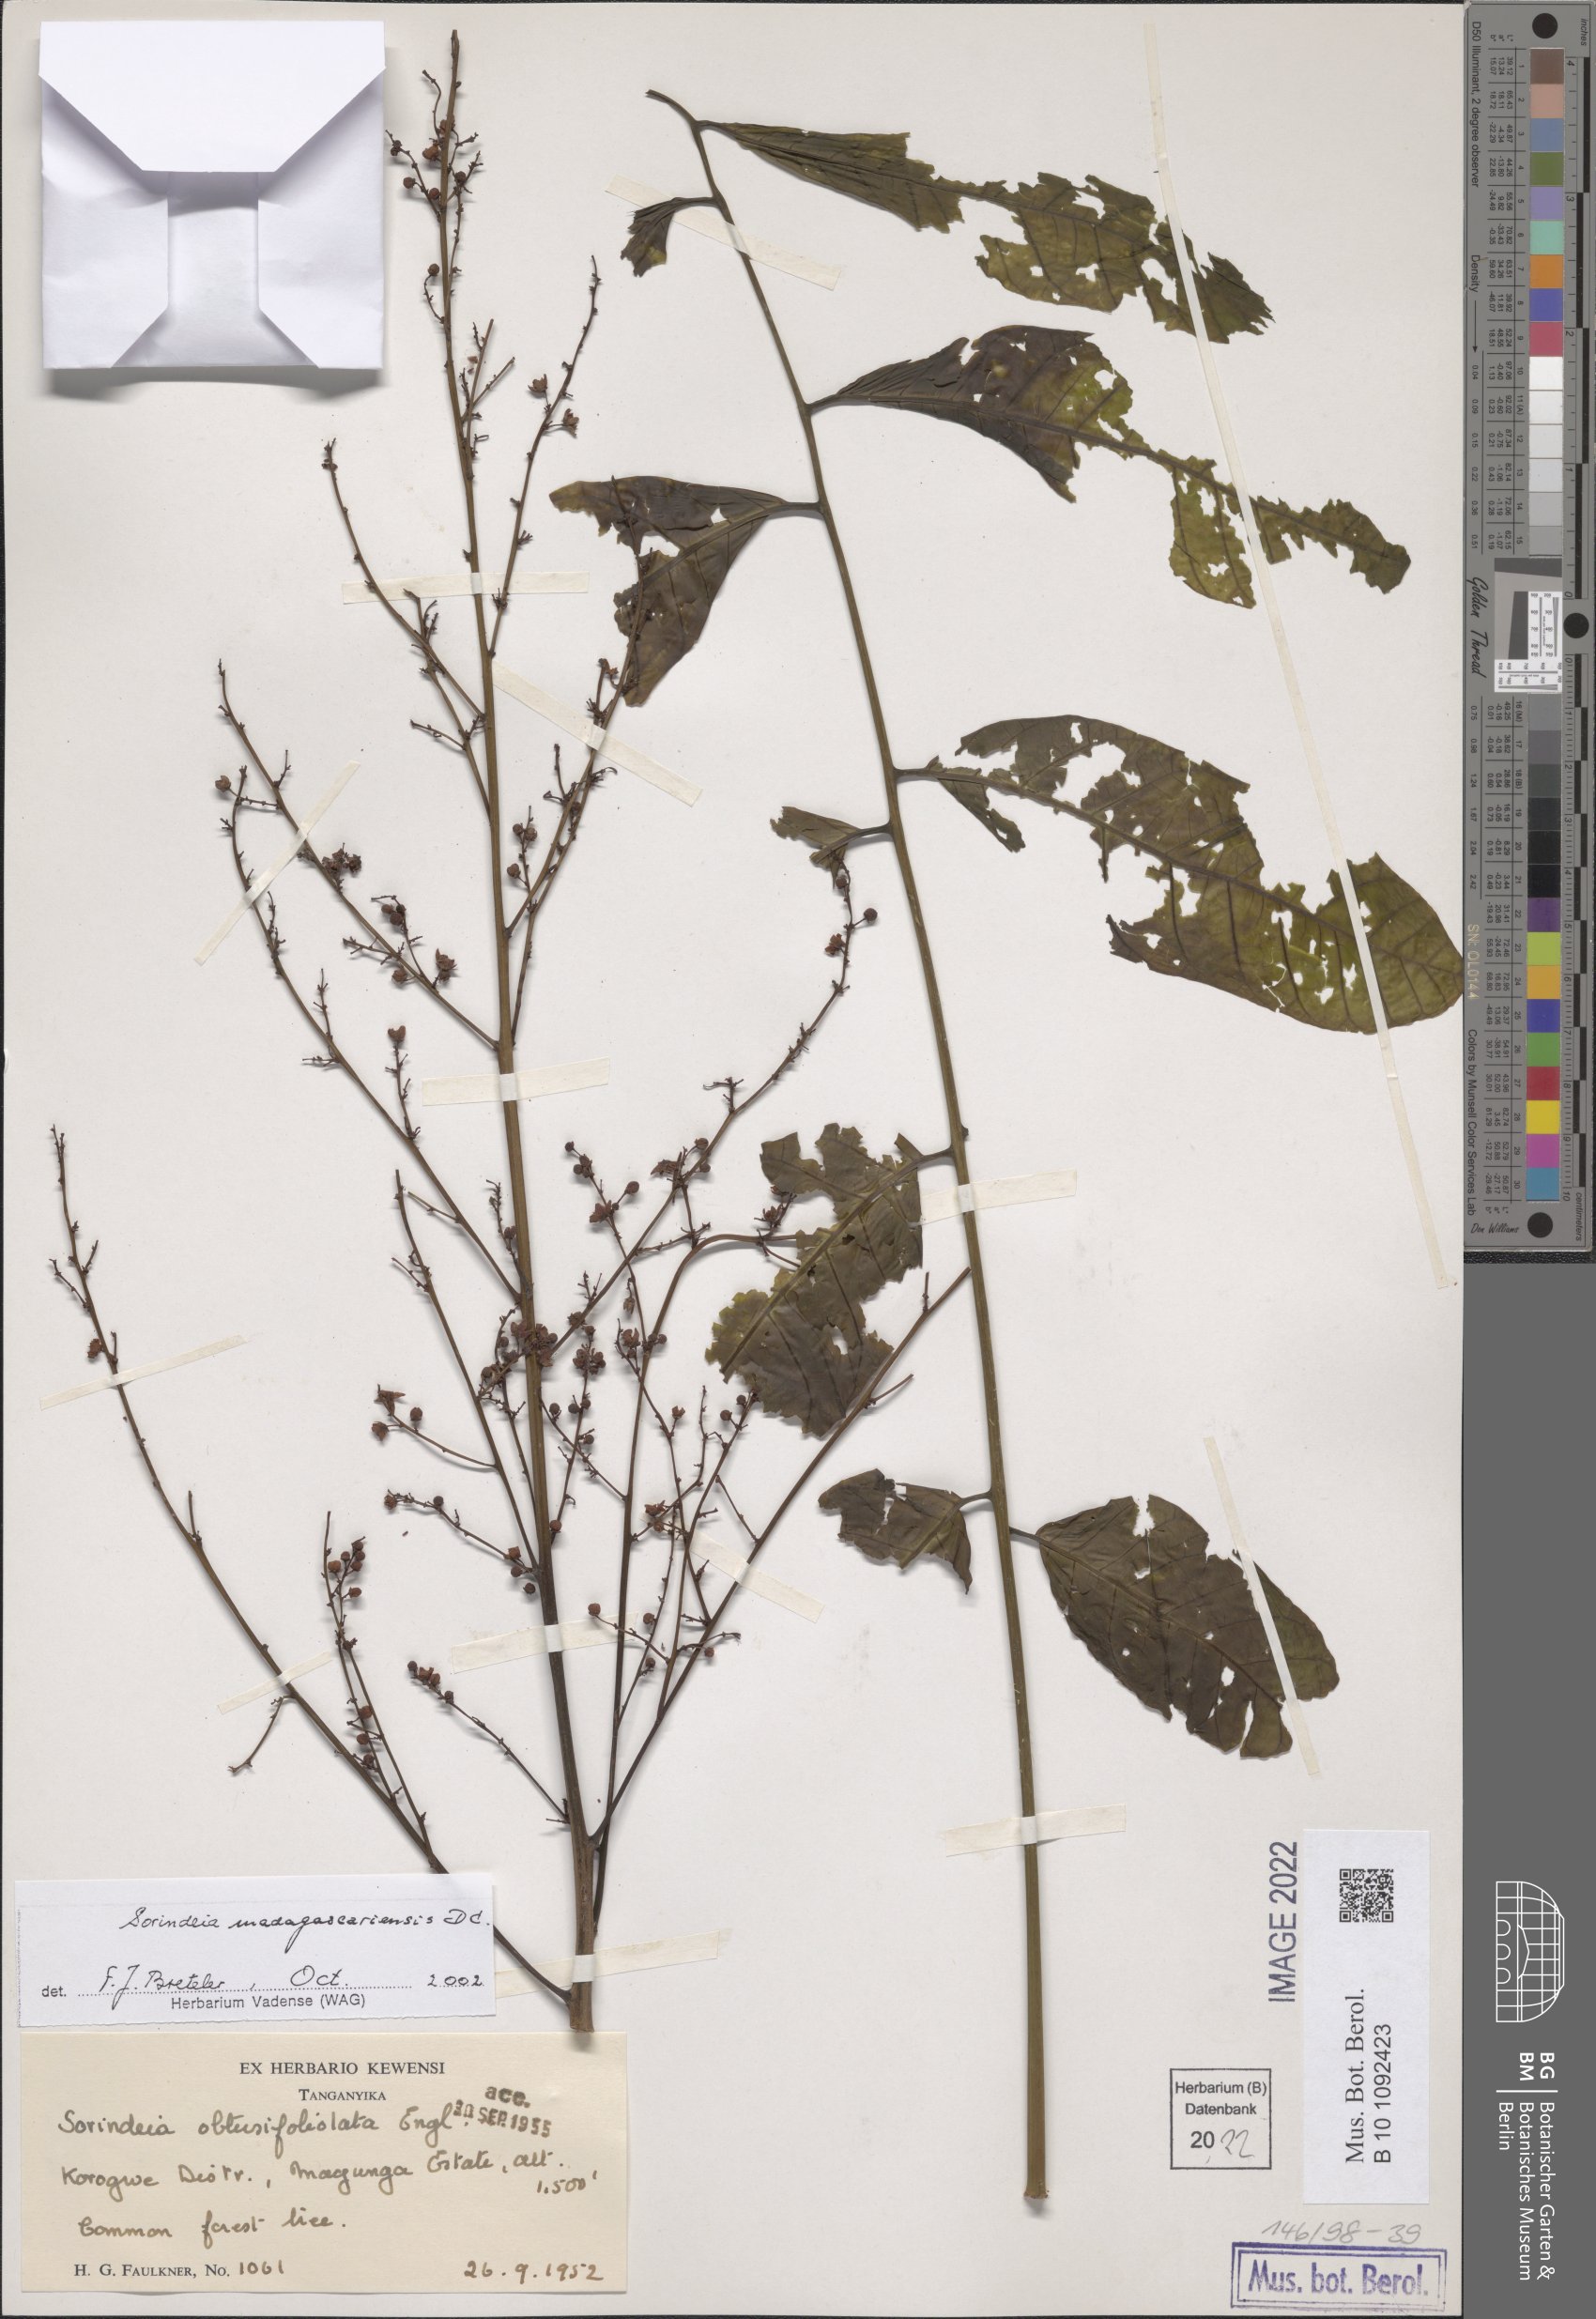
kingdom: Plantae
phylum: Tracheophyta
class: Magnoliopsida
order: Sapindales
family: Anacardiaceae
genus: Sorindeia
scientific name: Sorindeia madagascariensis
